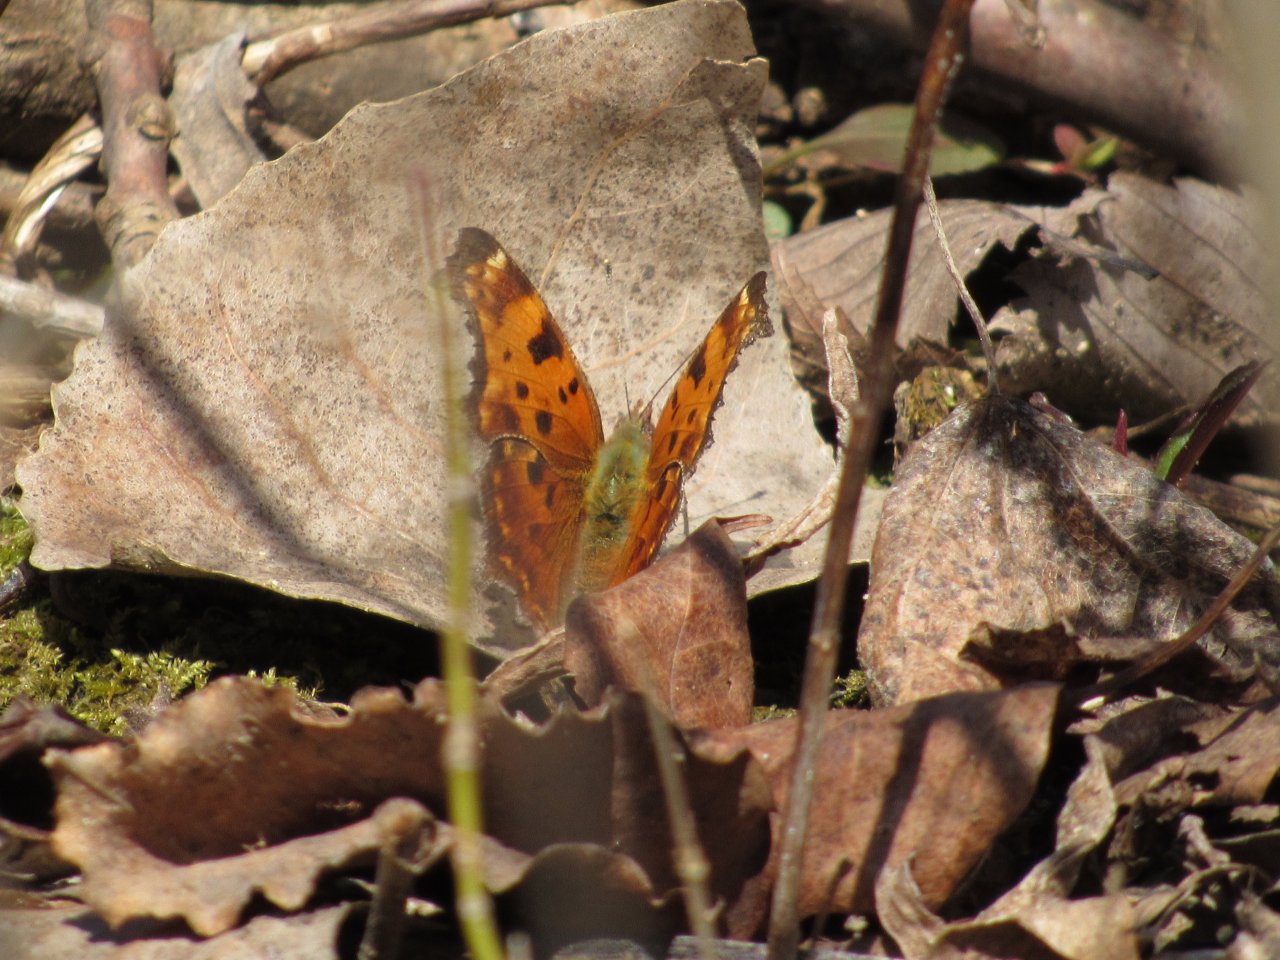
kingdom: Animalia
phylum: Arthropoda
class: Insecta
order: Lepidoptera
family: Nymphalidae
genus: Polygonia
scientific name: Polygonia comma
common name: Eastern Comma
